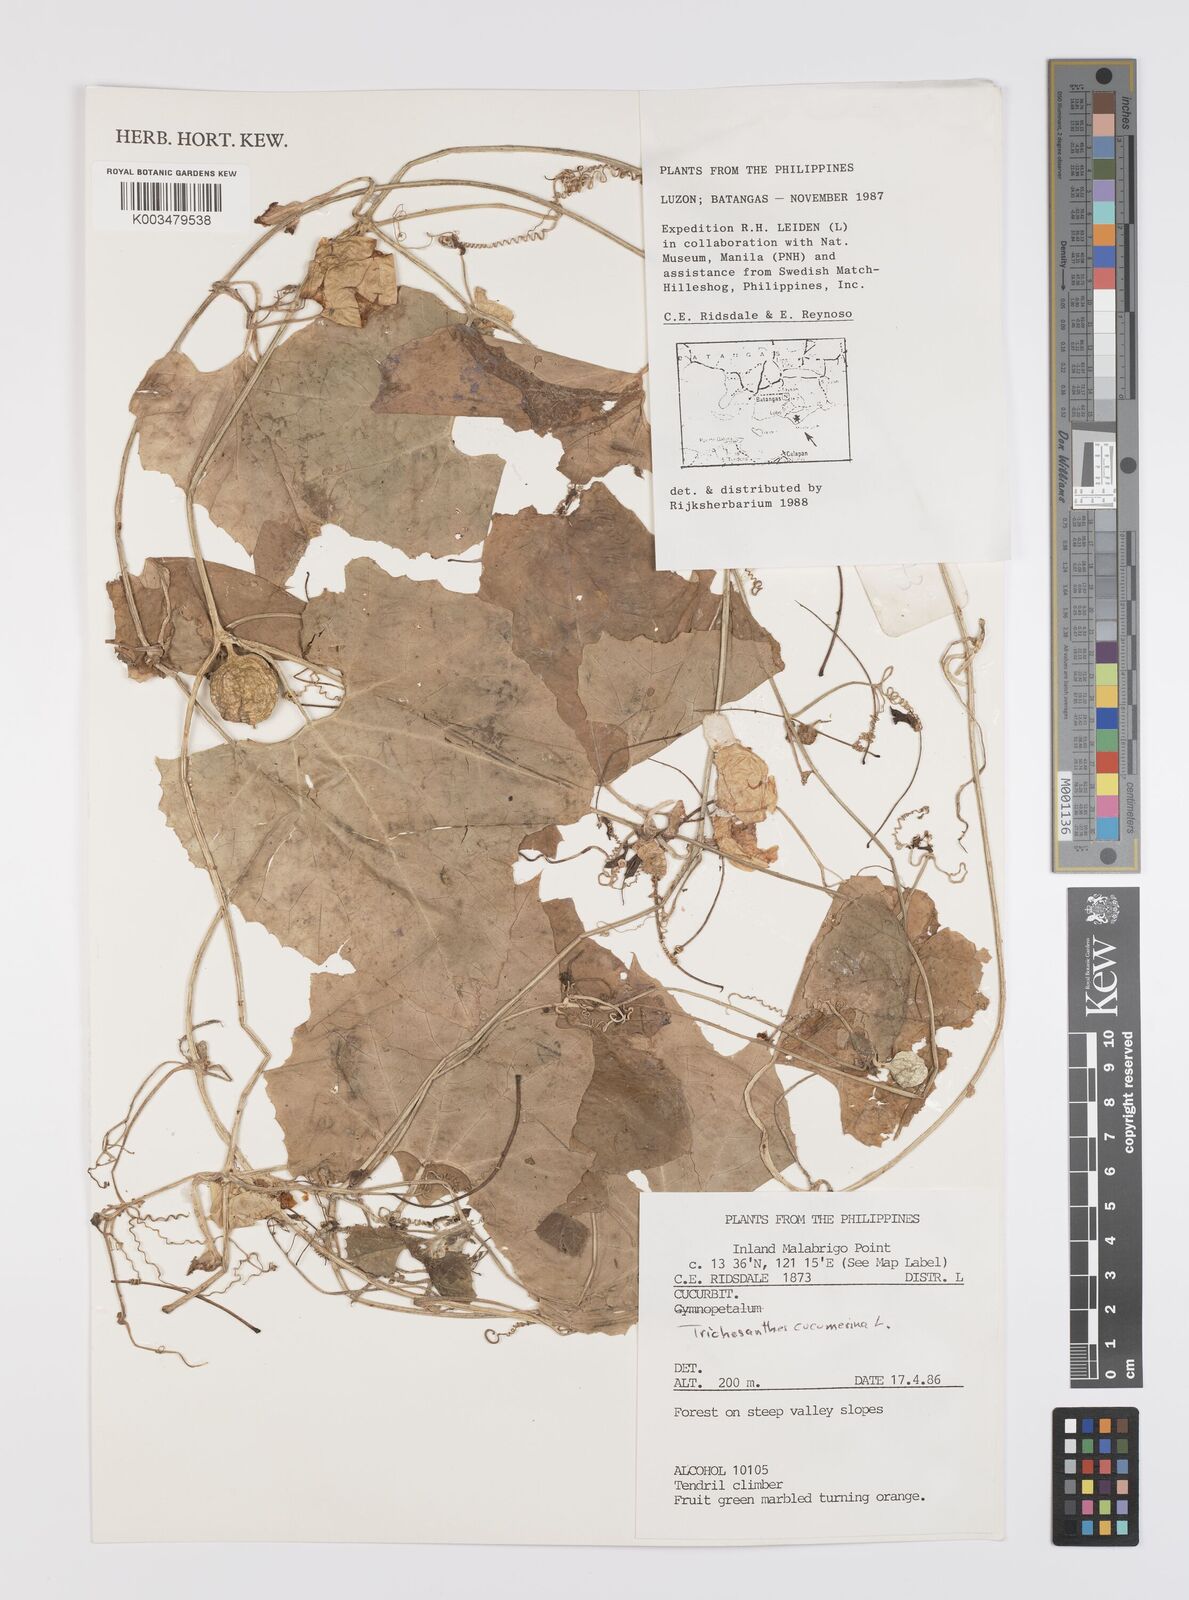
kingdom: Plantae
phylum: Tracheophyta
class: Magnoliopsida
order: Cucurbitales
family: Cucurbitaceae
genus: Trichosanthes
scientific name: Trichosanthes cucumerina
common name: Snakegourd
